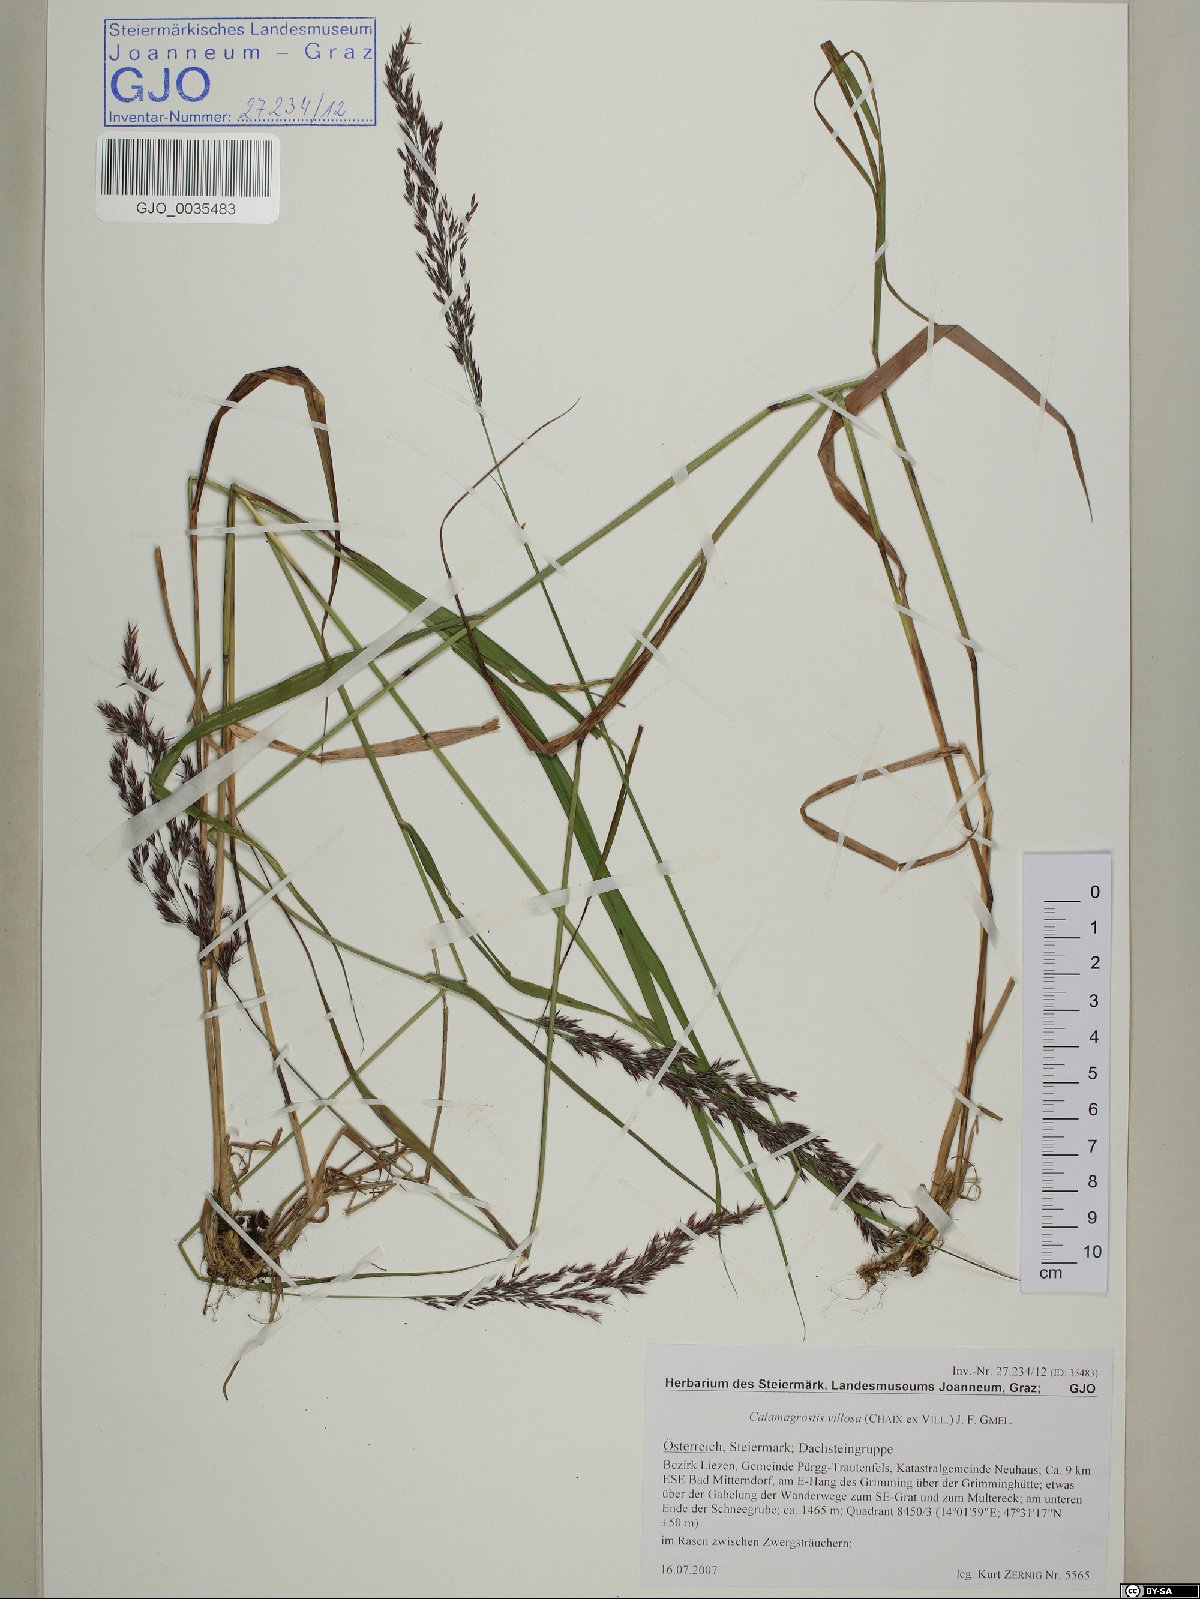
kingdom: Plantae
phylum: Tracheophyta
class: Liliopsida
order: Poales
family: Poaceae
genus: Calamagrostis
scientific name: Calamagrostis villosa
